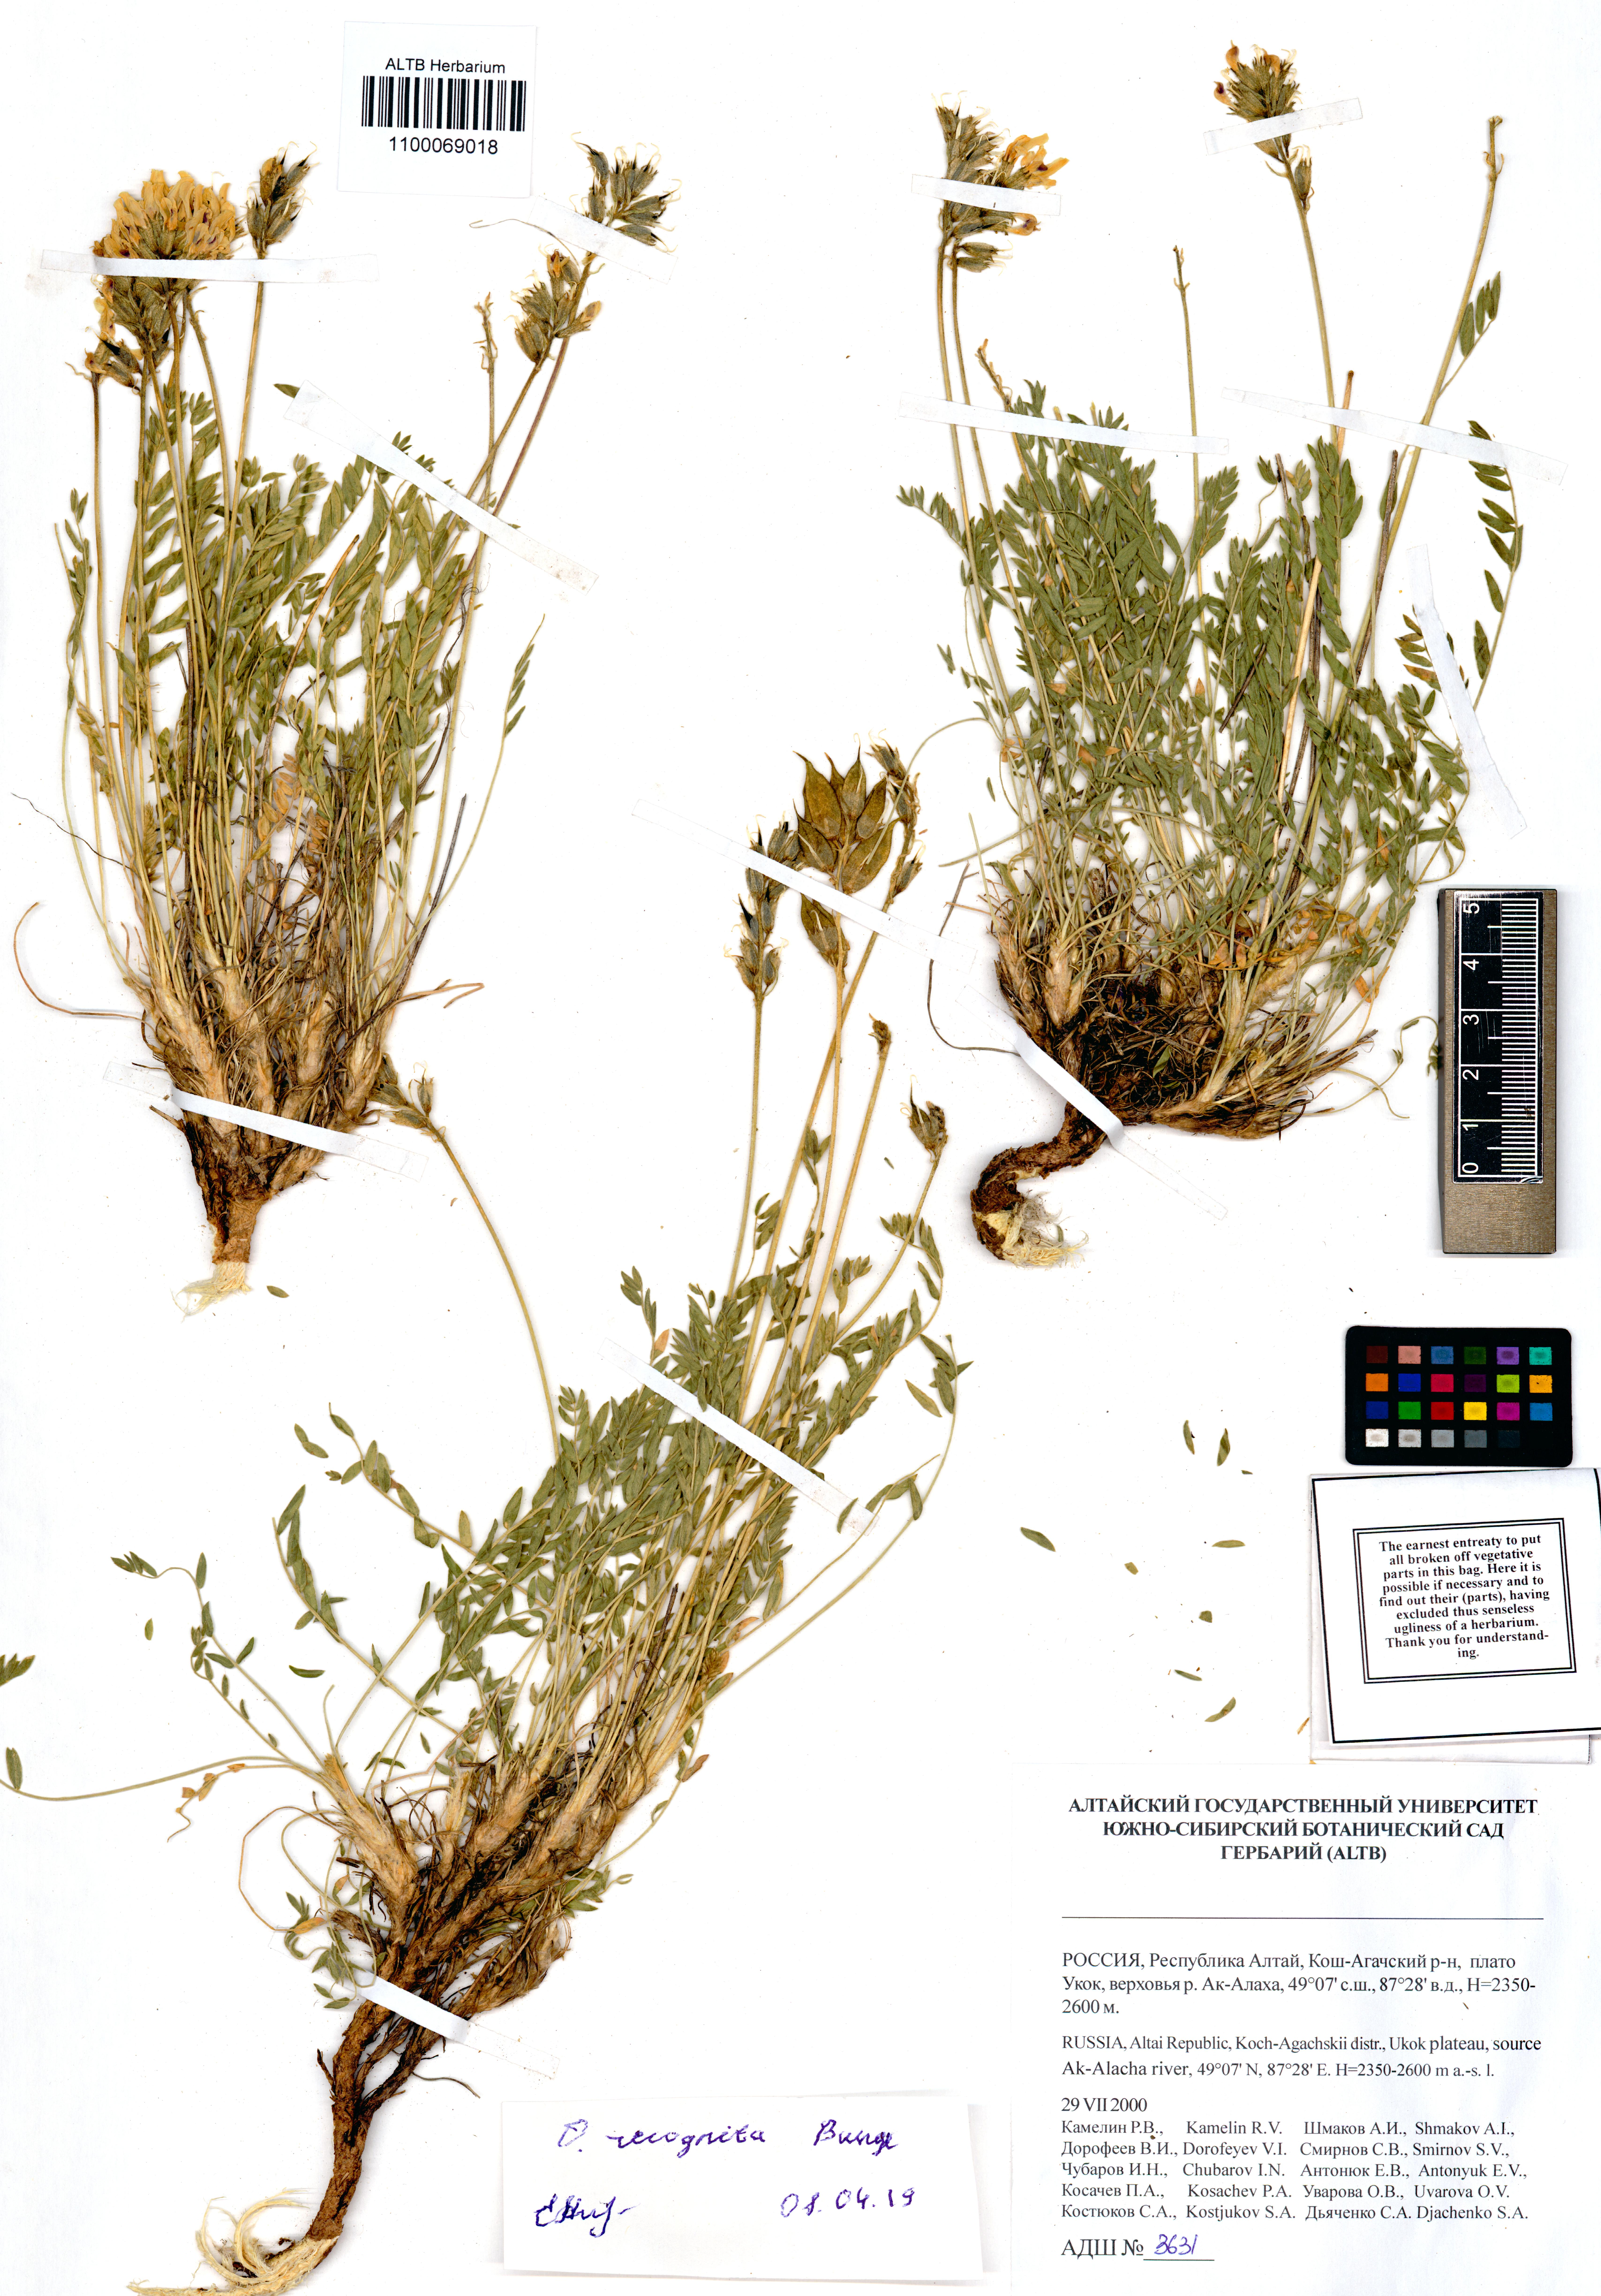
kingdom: Plantae
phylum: Tracheophyta
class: Magnoliopsida
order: Fabales
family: Fabaceae
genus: Oxytropis
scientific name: Oxytropis recognita
